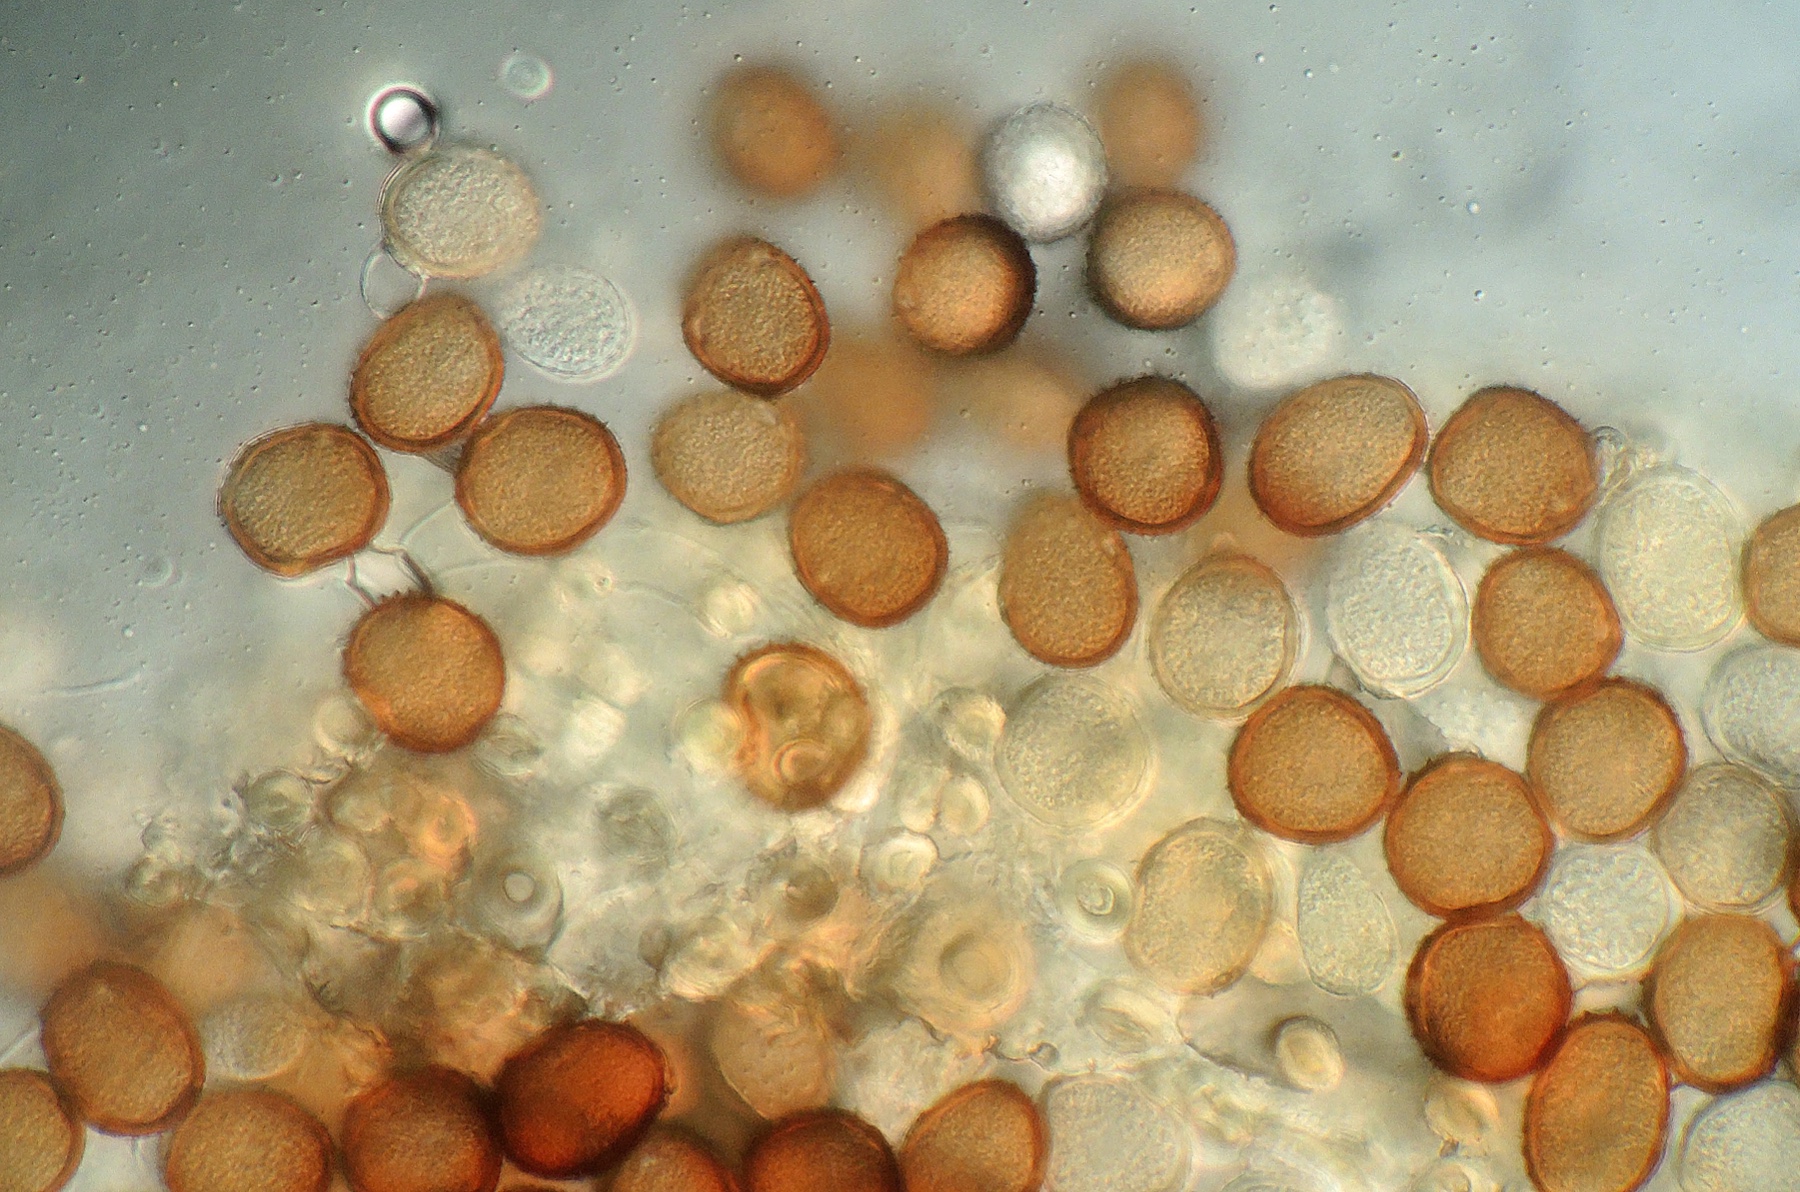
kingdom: Fungi
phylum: Basidiomycota
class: Pucciniomycetes
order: Pucciniales
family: Pucciniaceae
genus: Puccinia
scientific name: Puccinia caricina
